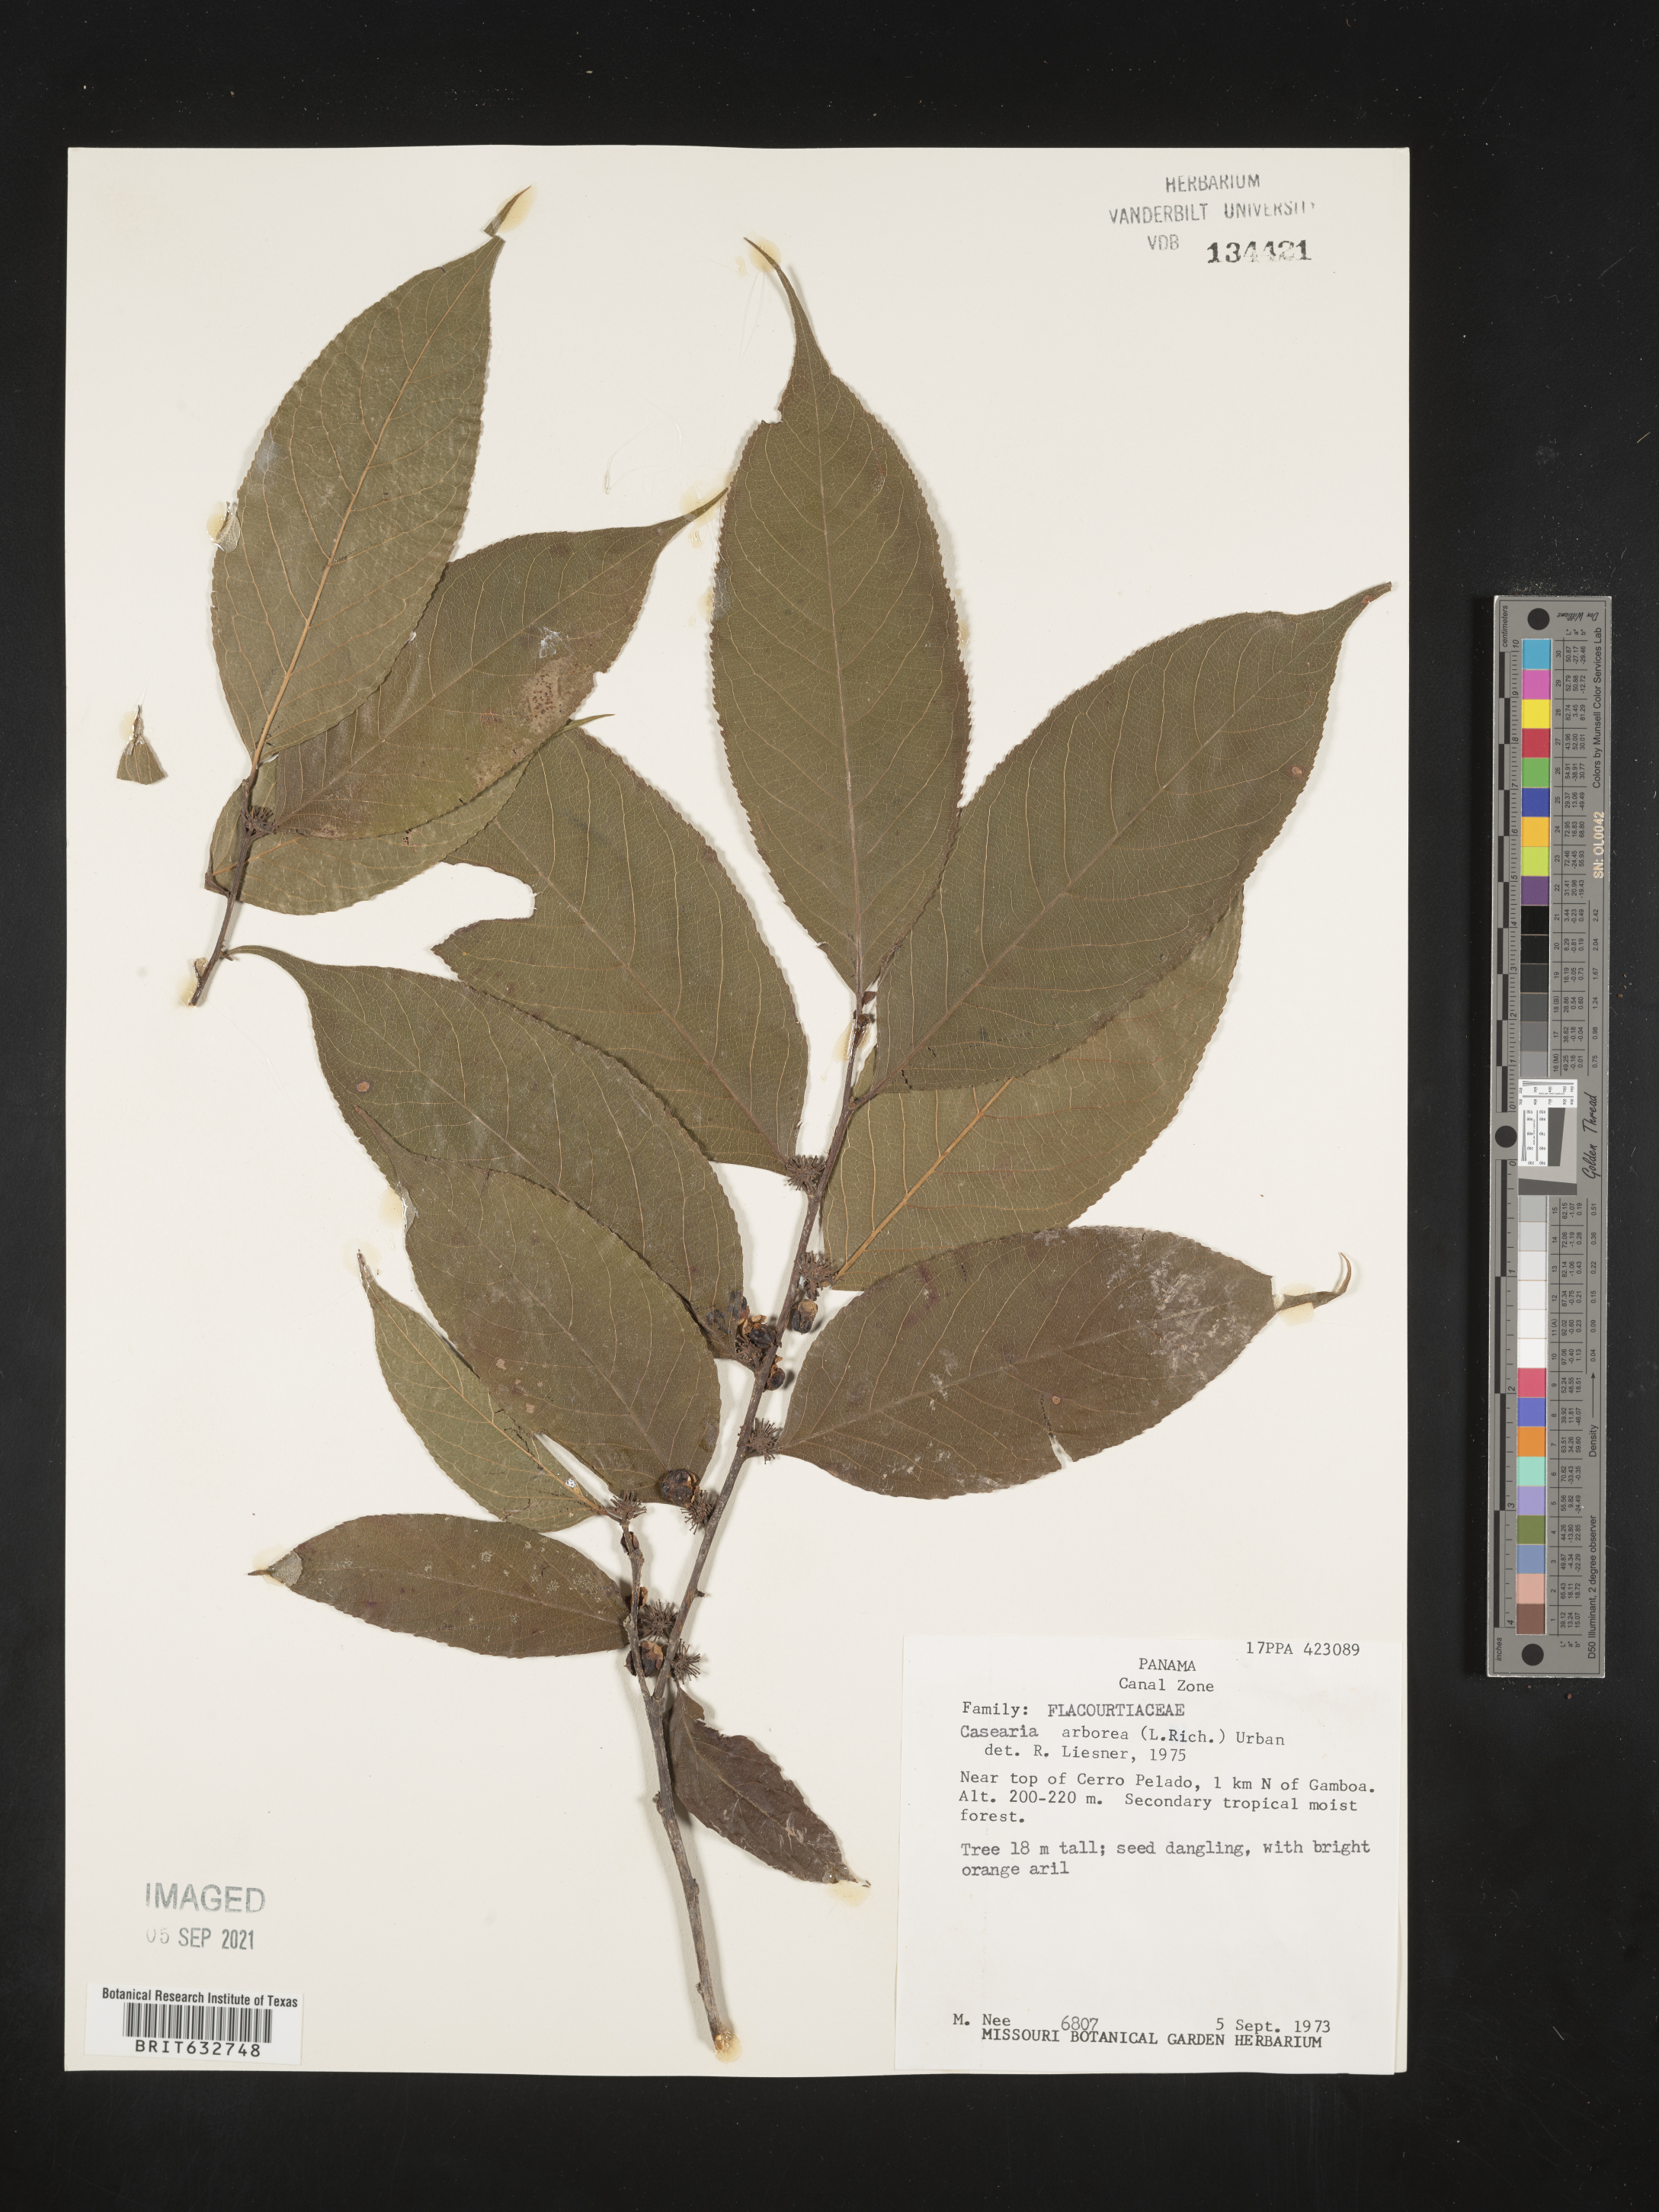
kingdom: Plantae
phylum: Tracheophyta
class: Magnoliopsida
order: Malpighiales
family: Salicaceae
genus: Casearia
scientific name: Casearia
